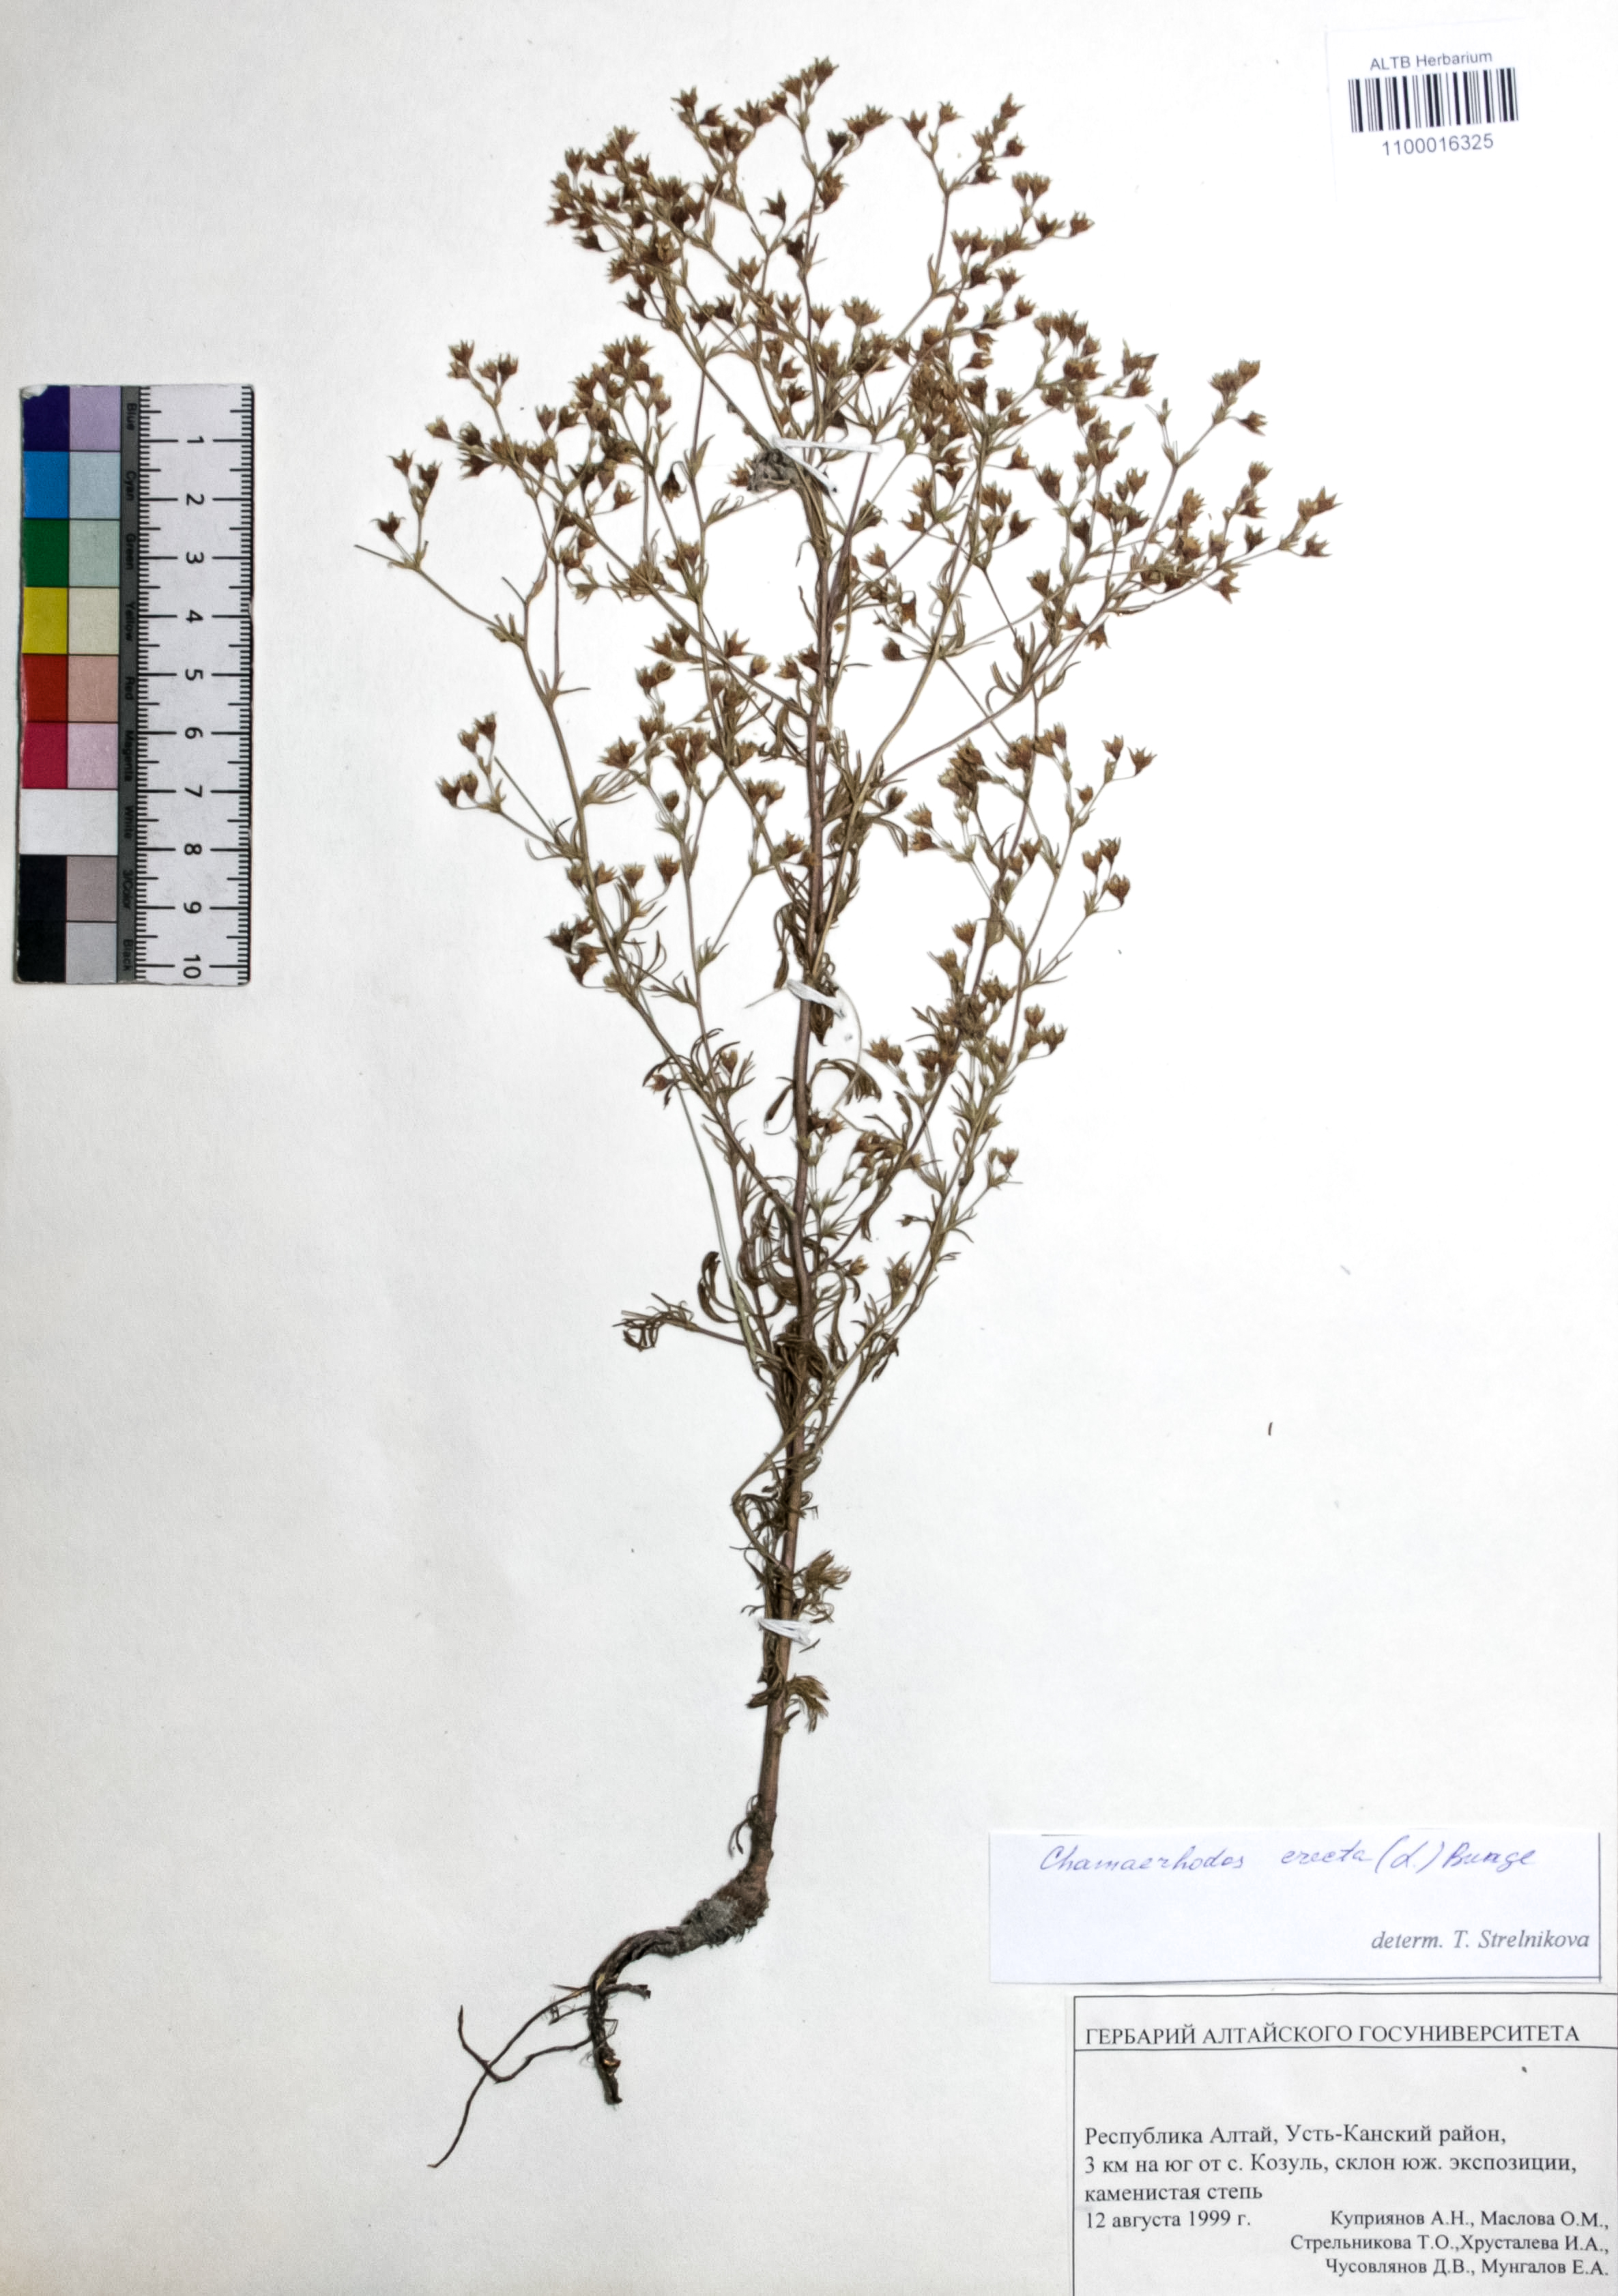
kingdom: Plantae
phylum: Tracheophyta
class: Magnoliopsida
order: Rosales
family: Rosaceae
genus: Chamaerhodos
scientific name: Chamaerhodos erecta
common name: American chamaerhodos
